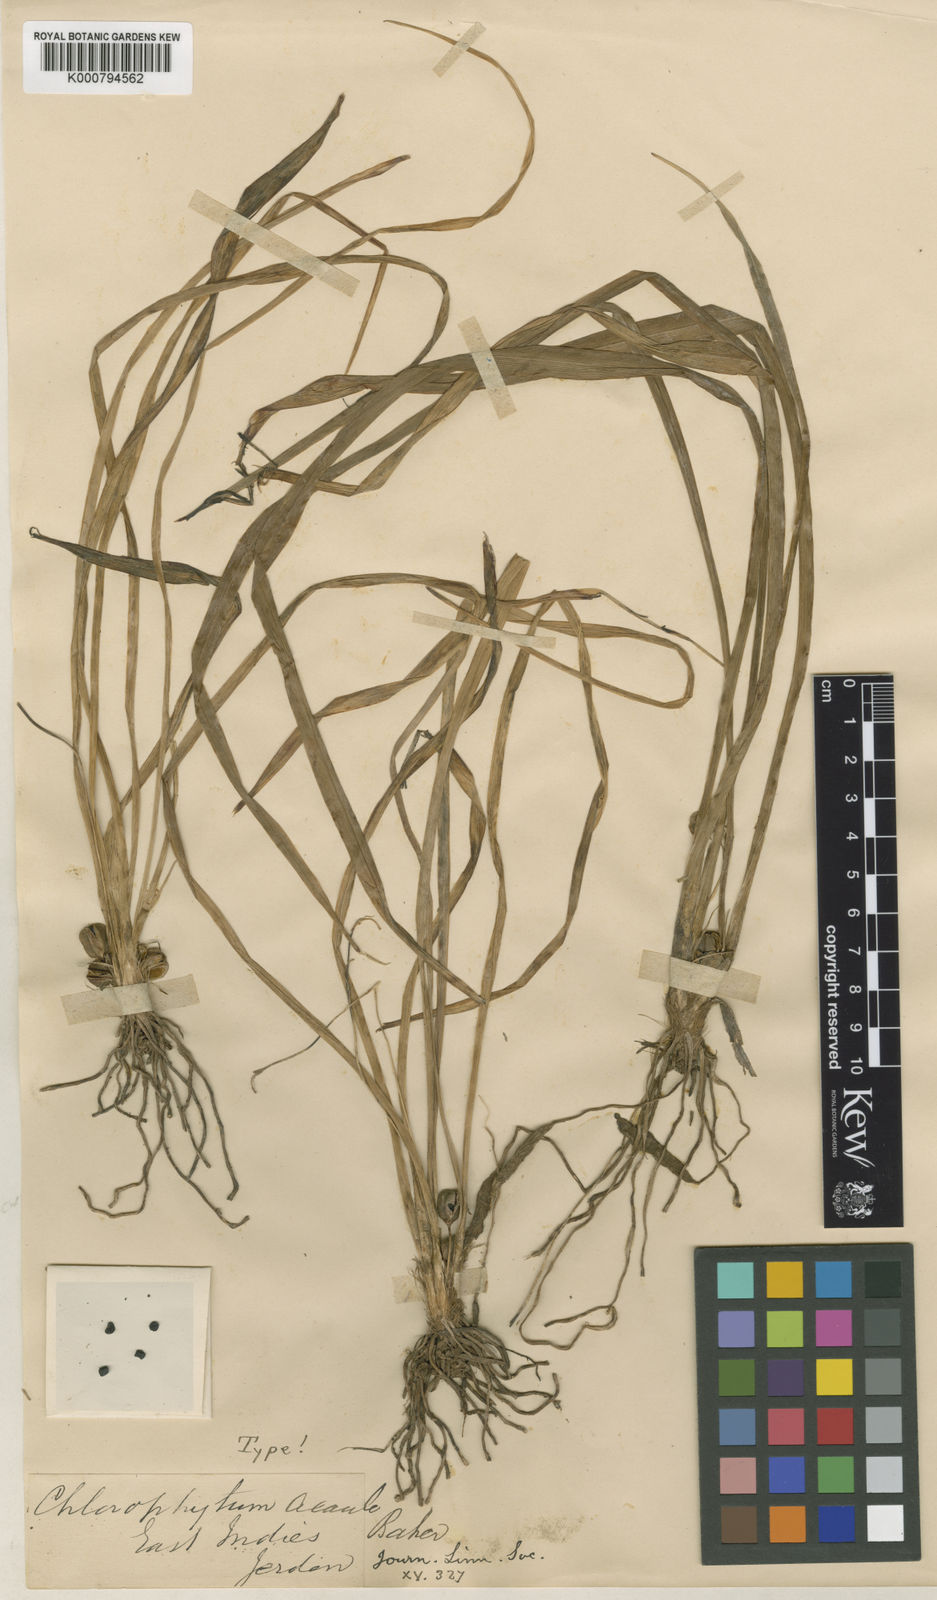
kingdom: Plantae
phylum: Tracheophyta
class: Liliopsida
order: Asparagales
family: Asparagaceae
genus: Chlorophytum
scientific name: Chlorophytum laxum
